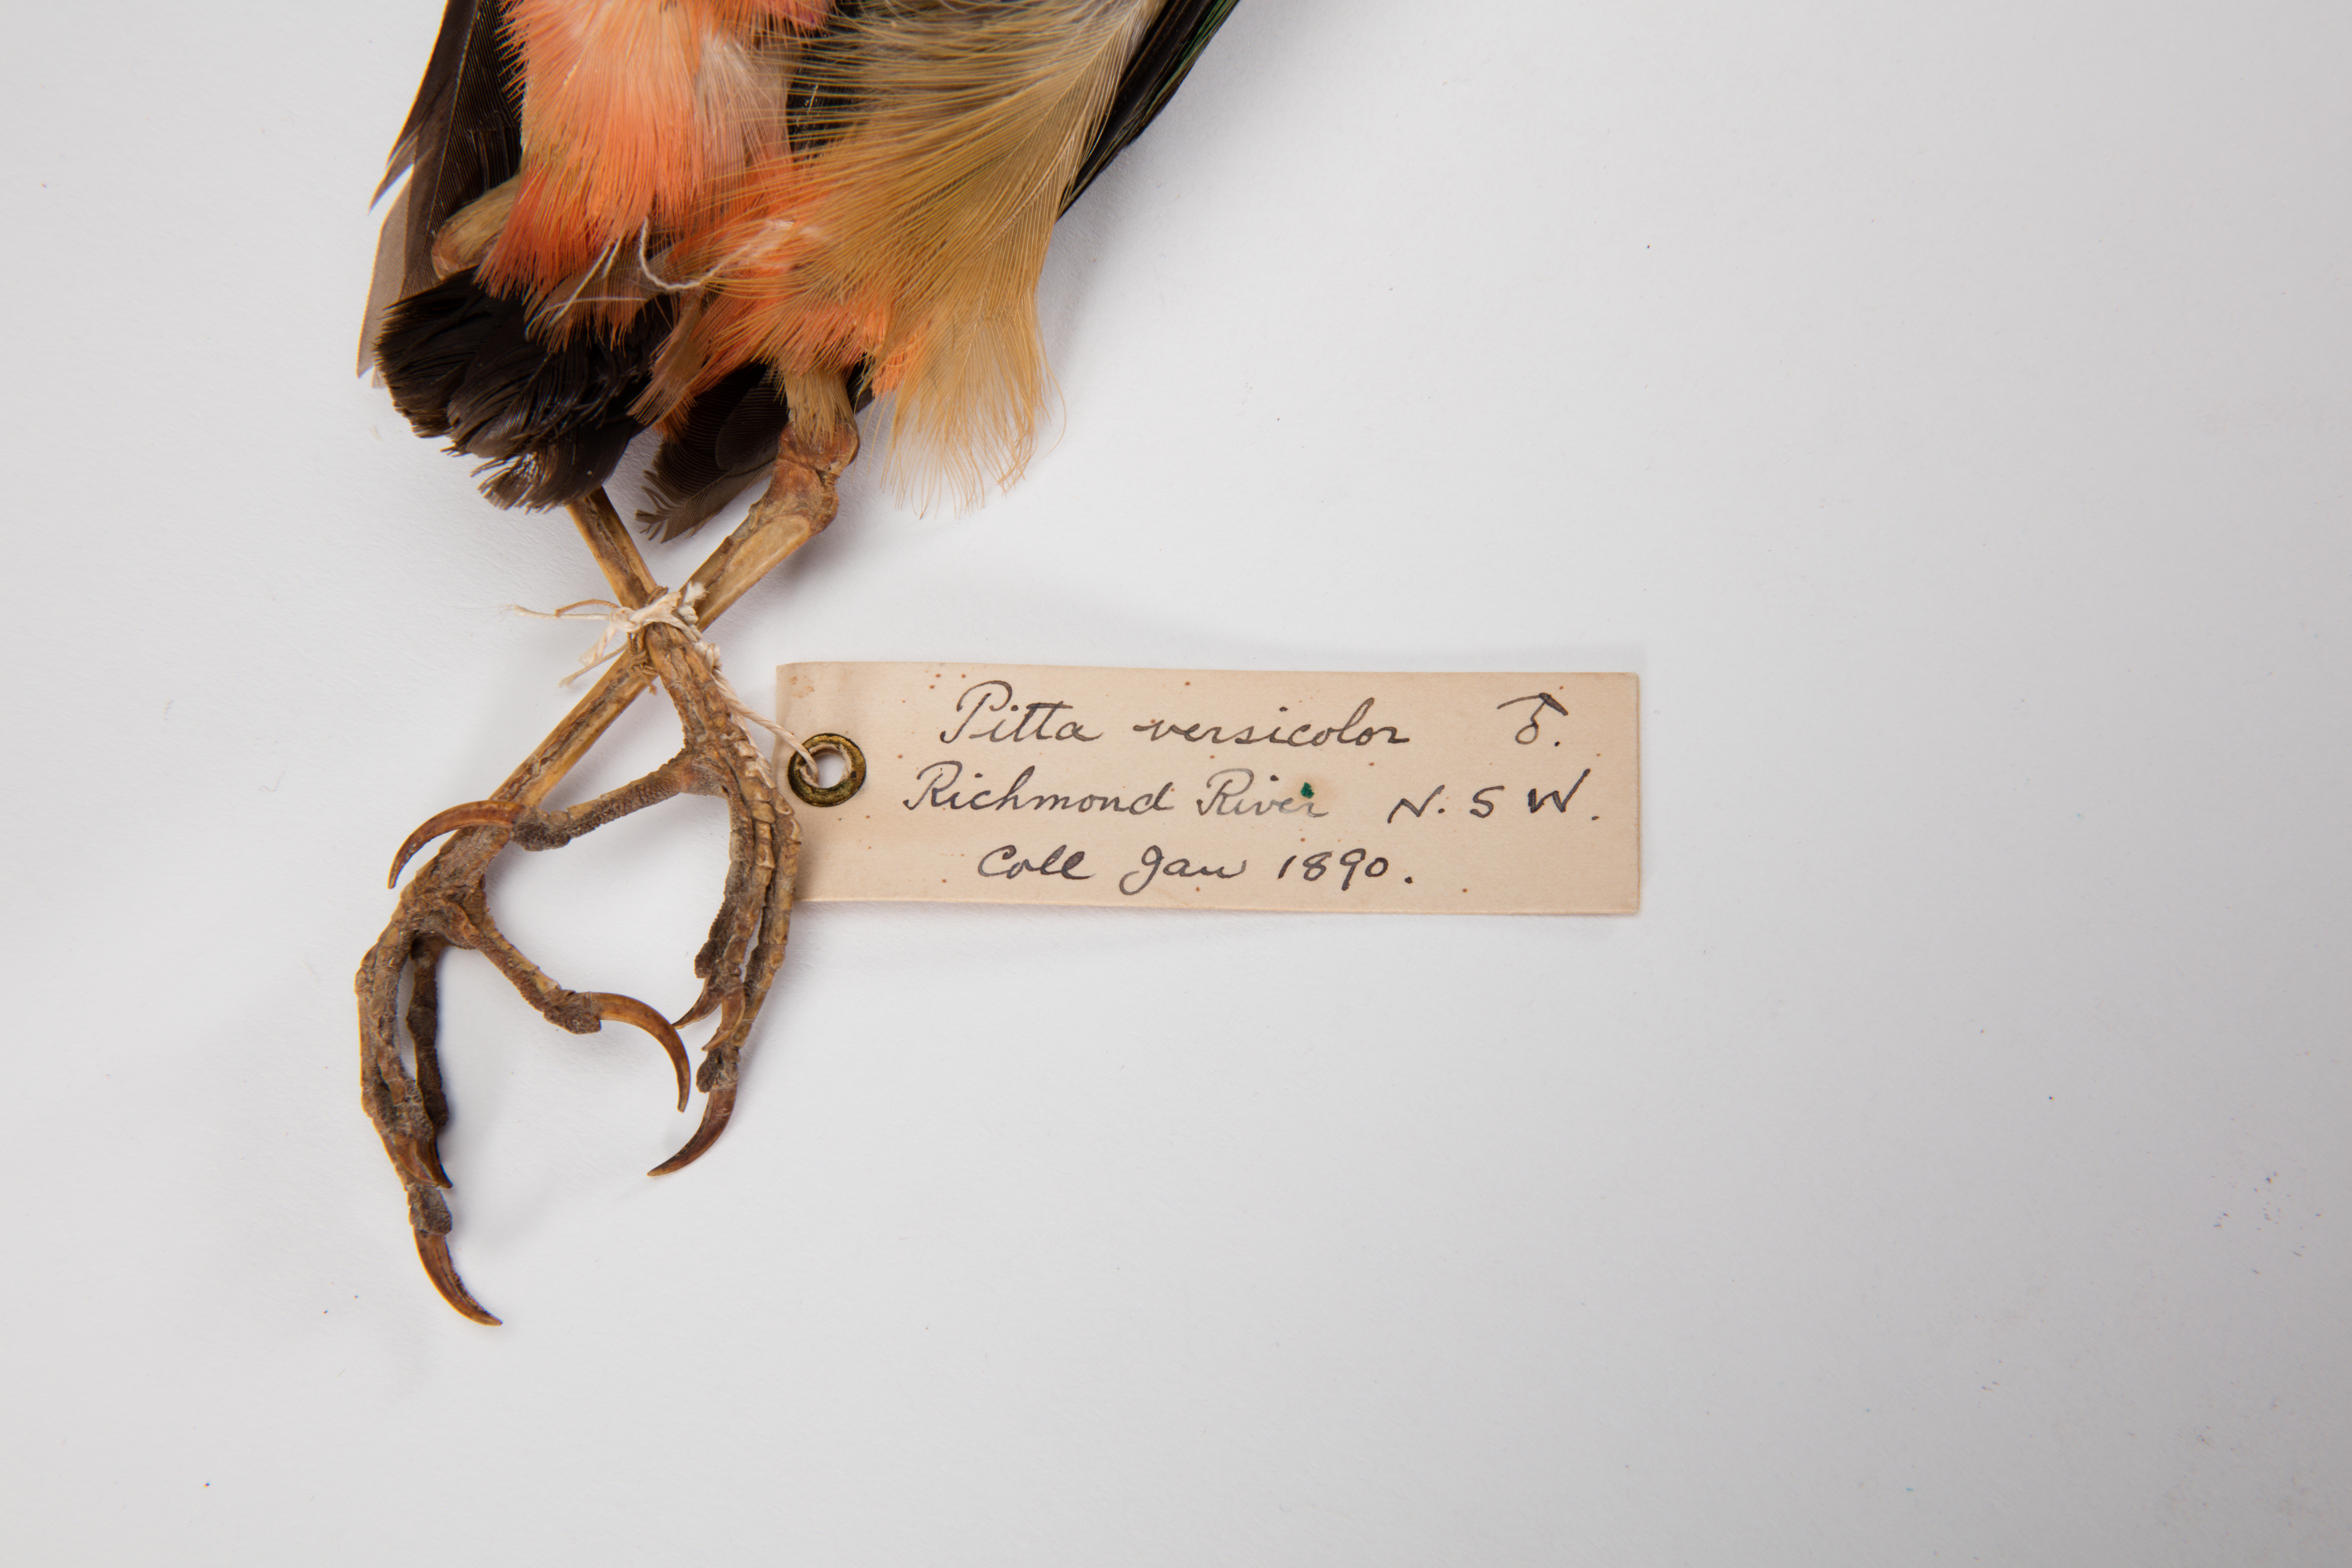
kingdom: Animalia
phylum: Chordata
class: Aves
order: Passeriformes
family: Pittidae
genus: Pitta
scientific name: Pitta versicolor
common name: Noisy pitta
